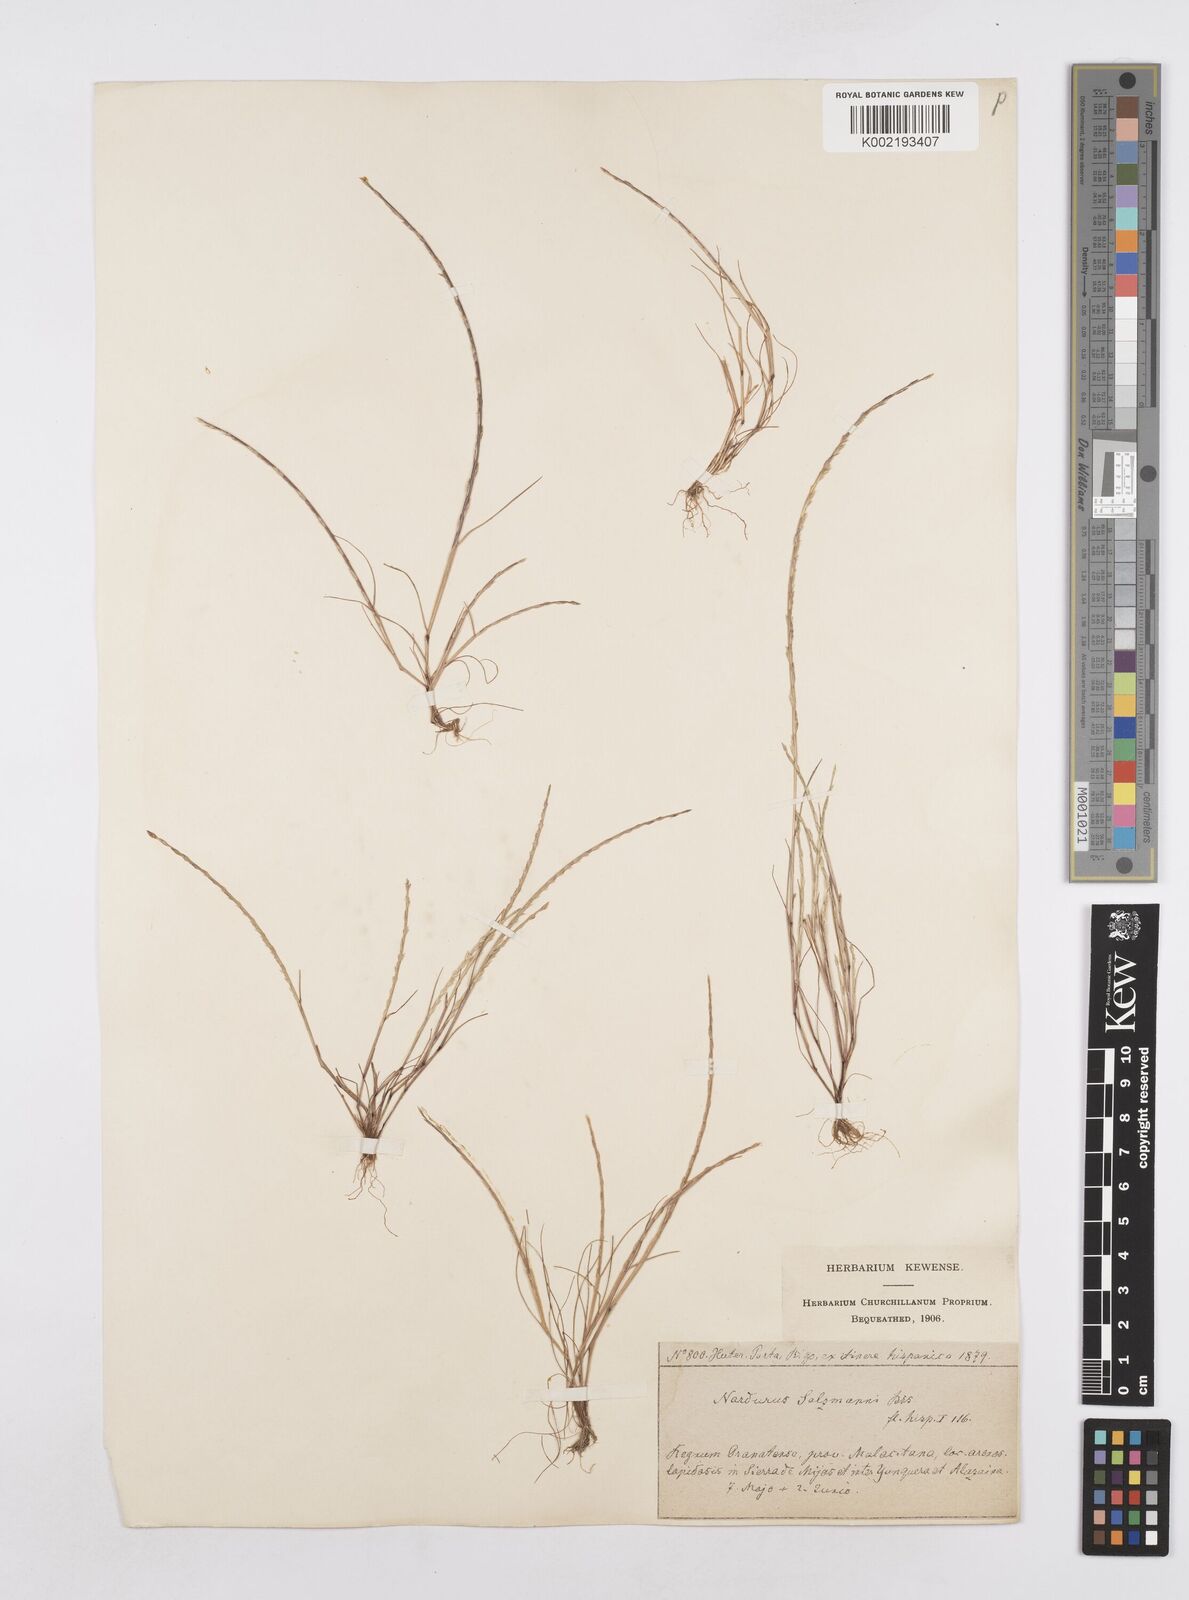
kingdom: Plantae
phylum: Tracheophyta
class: Liliopsida
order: Poales
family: Poaceae
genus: Festuca
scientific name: Festuca salzmannii
